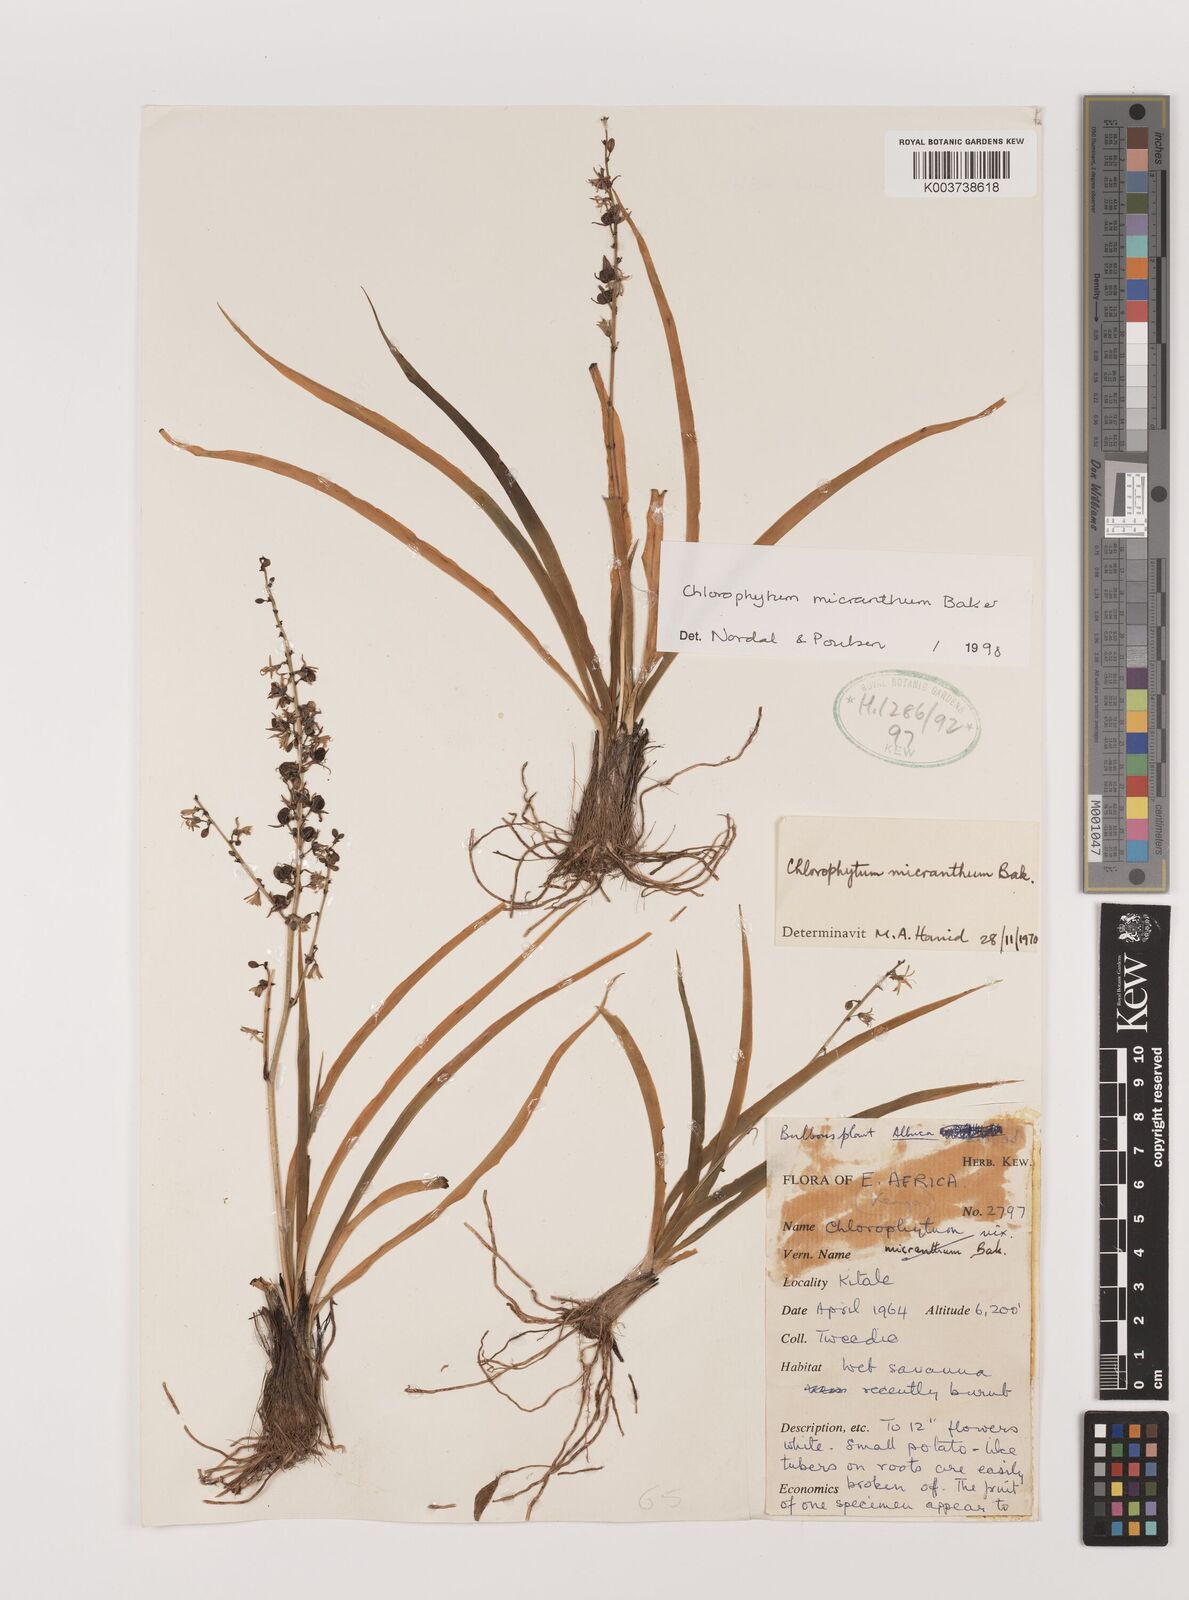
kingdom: Plantae
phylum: Tracheophyta
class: Liliopsida
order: Asparagales
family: Asparagaceae
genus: Chlorophytum
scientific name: Chlorophytum gallabatense
